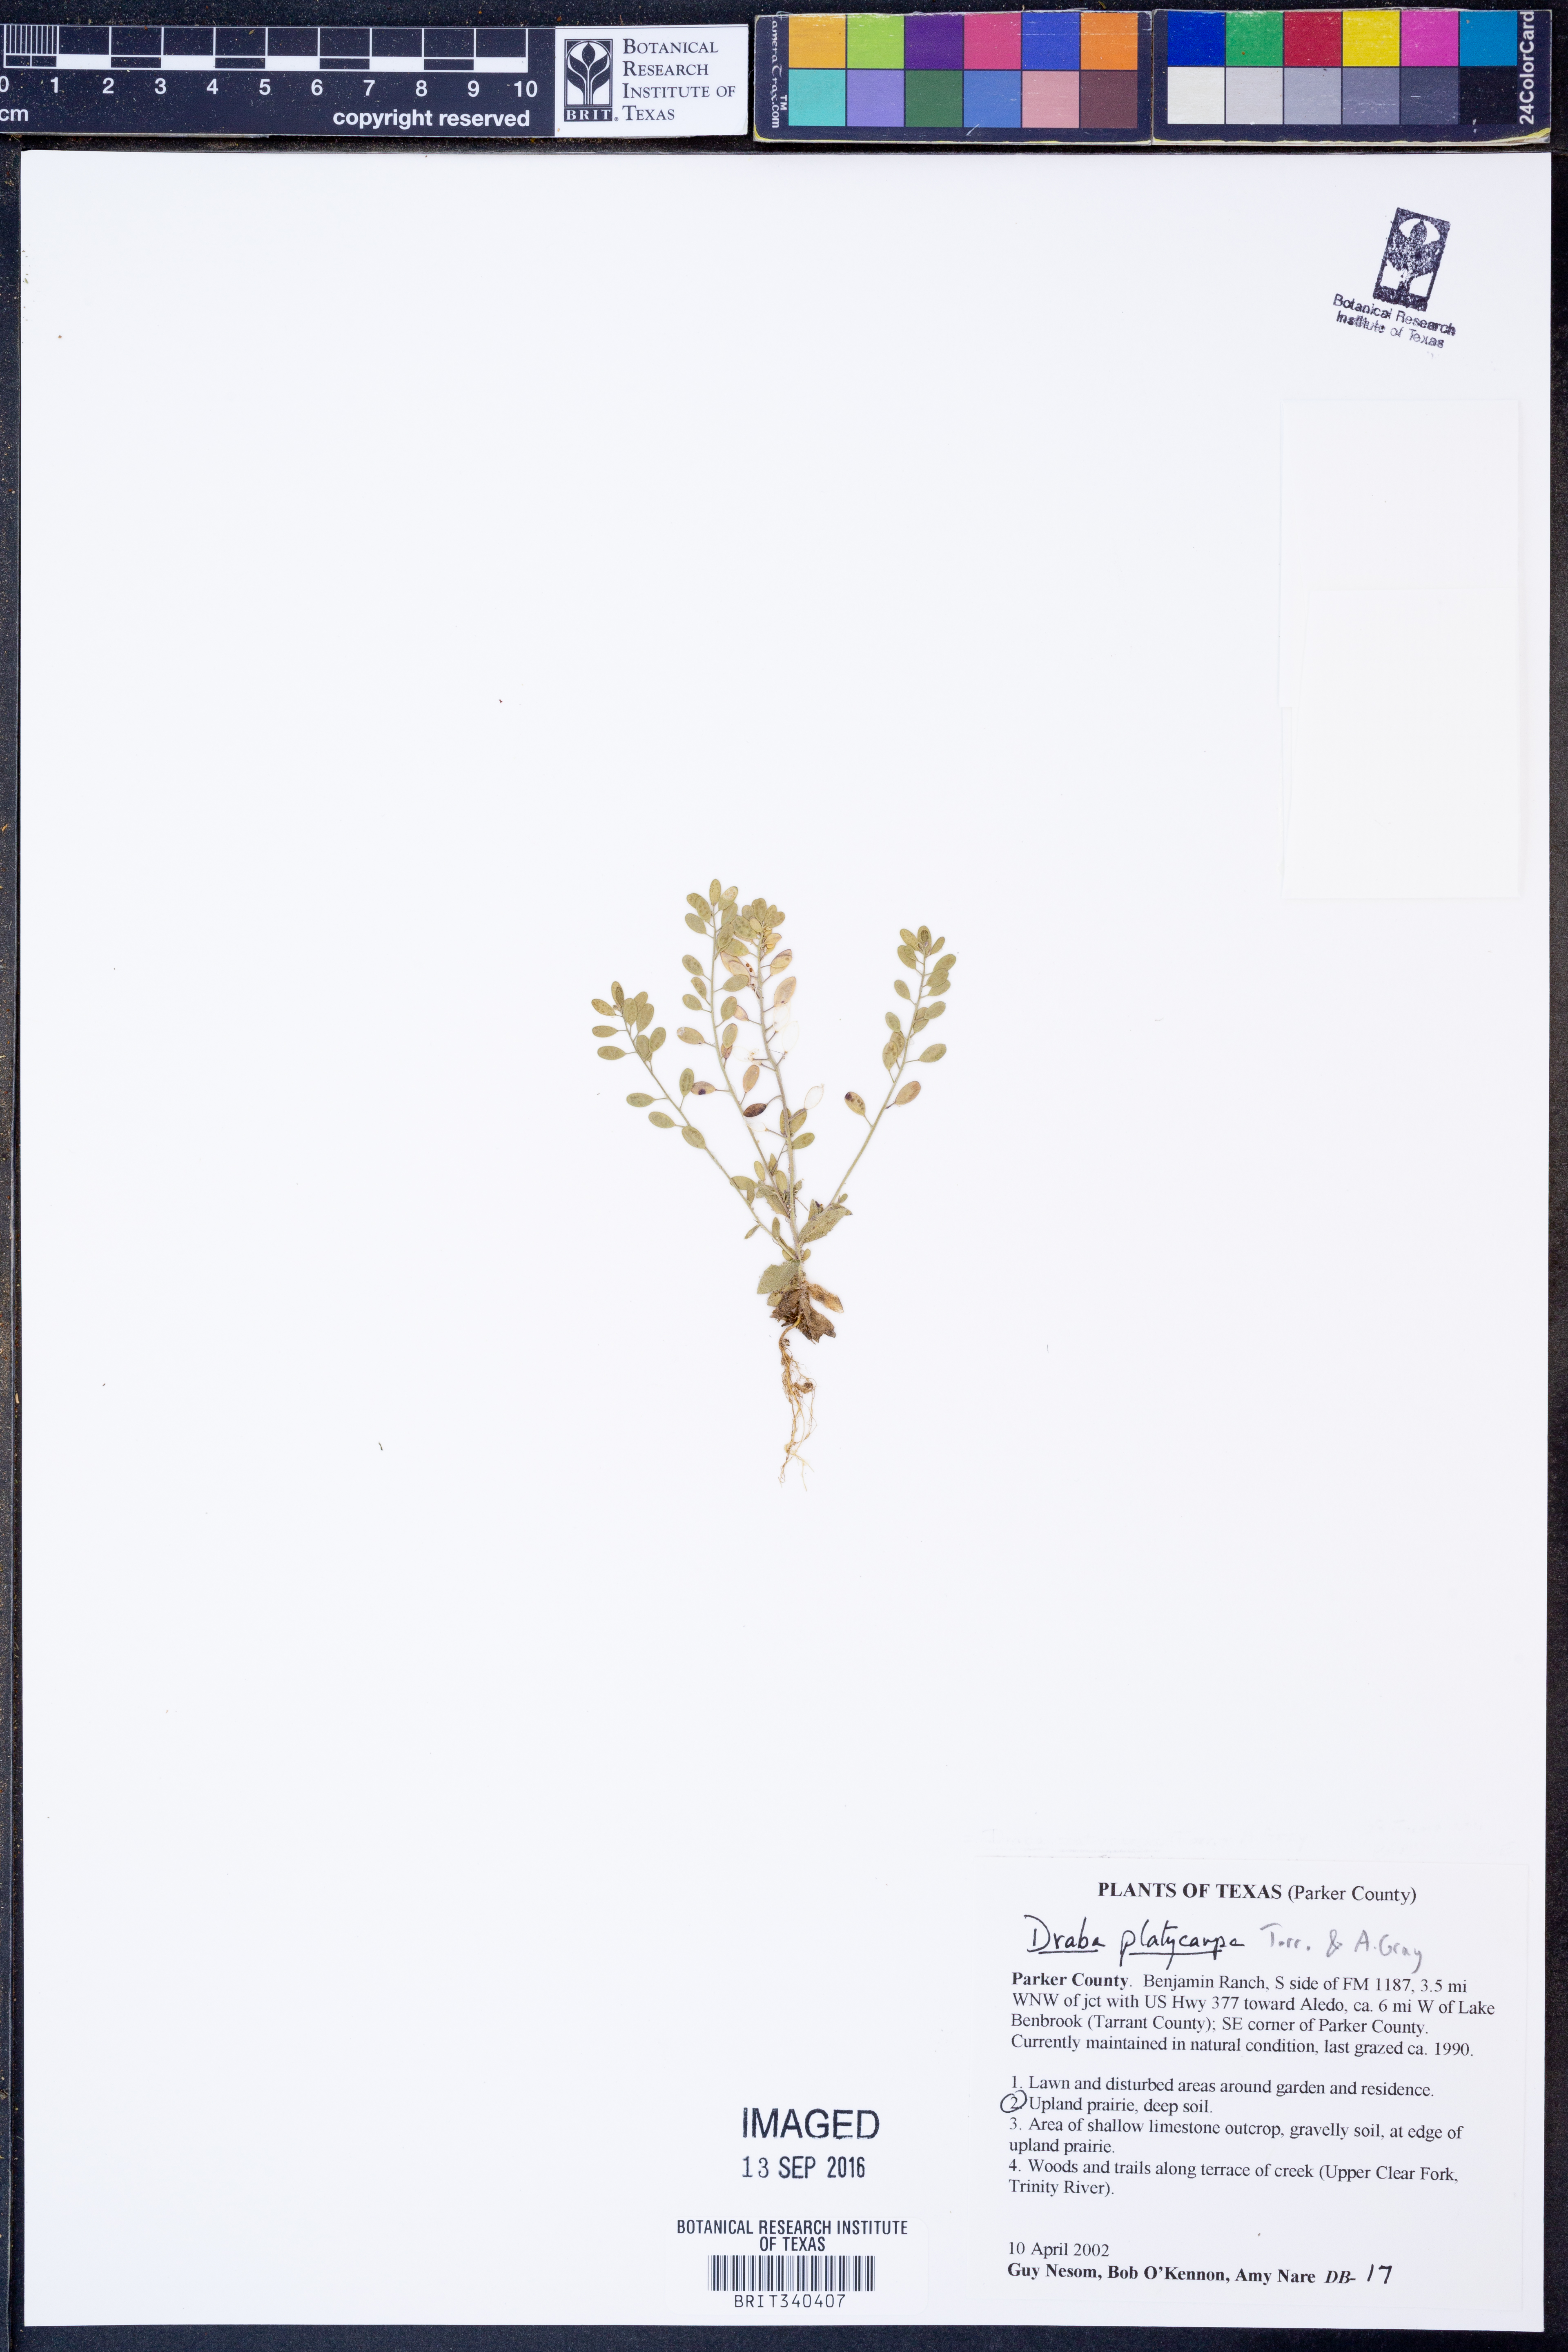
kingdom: Plantae
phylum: Tracheophyta
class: Magnoliopsida
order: Brassicales
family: Brassicaceae
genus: Tomostima
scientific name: Tomostima platycarpa
